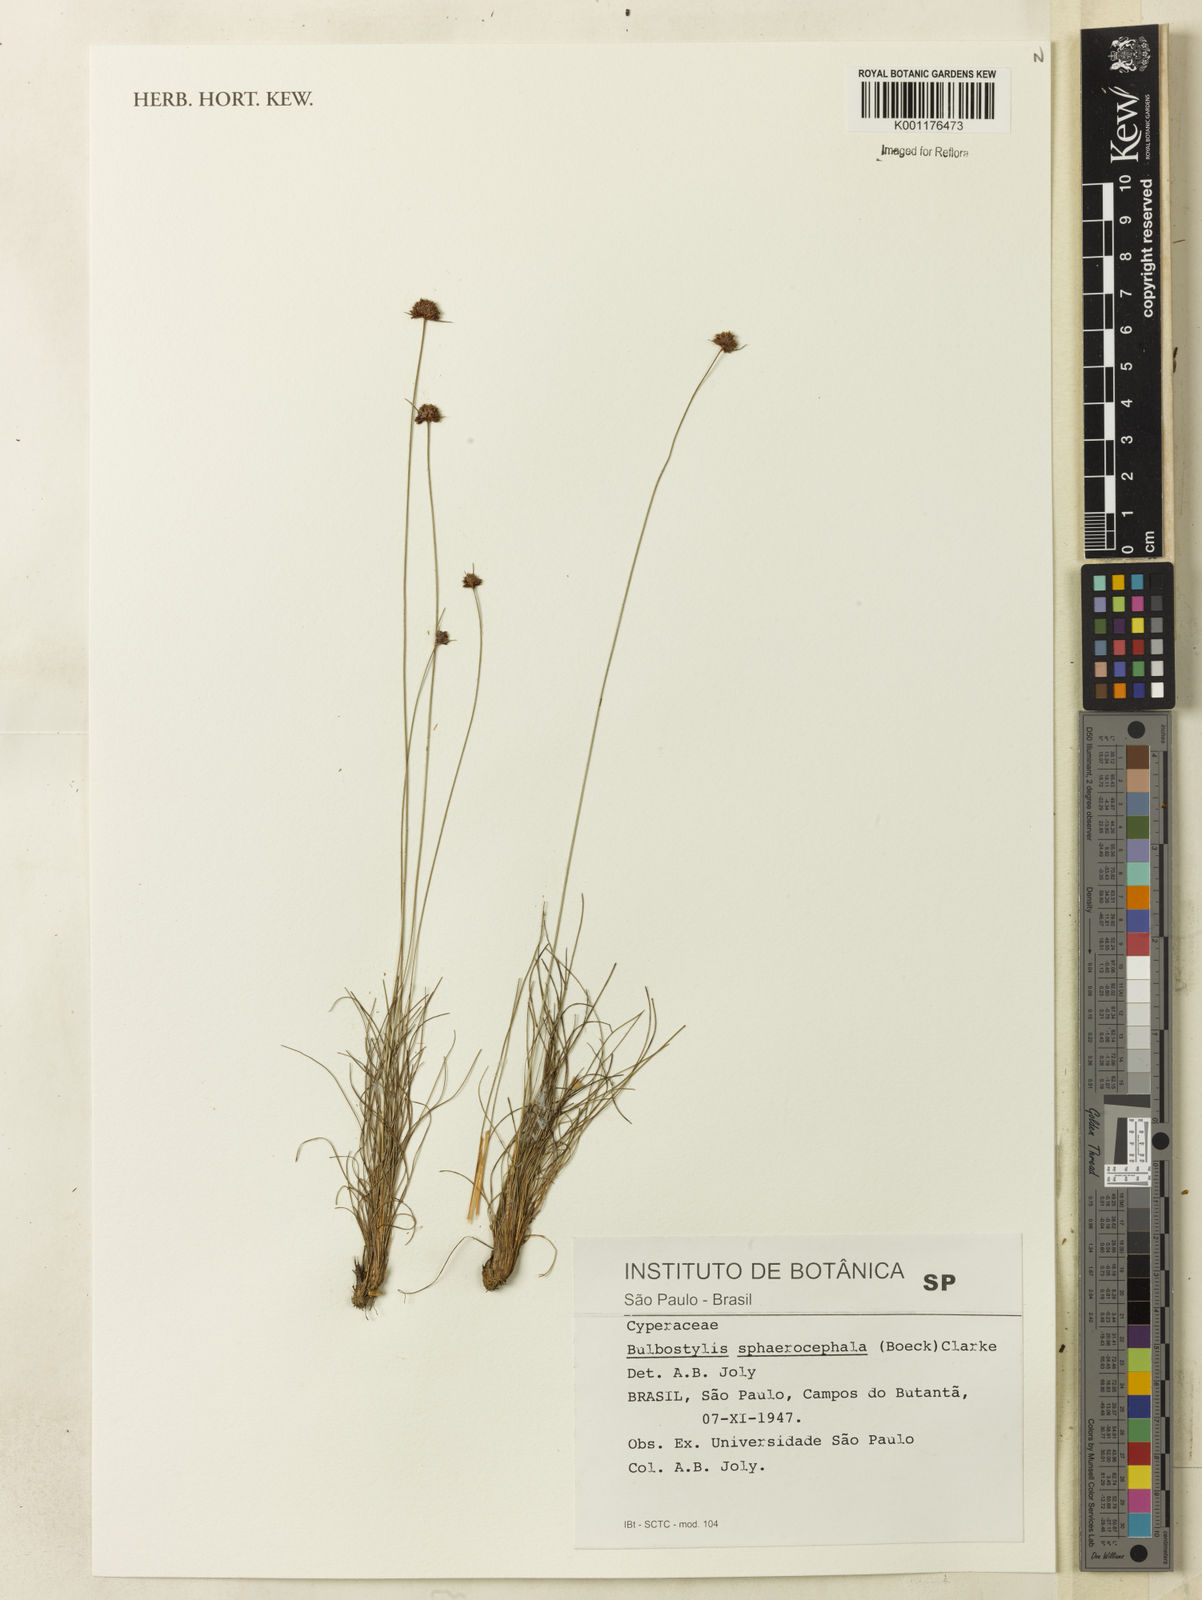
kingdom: Plantae
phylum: Tracheophyta
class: Liliopsida
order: Poales
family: Cyperaceae
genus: Bulbostylis
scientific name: Bulbostylis
